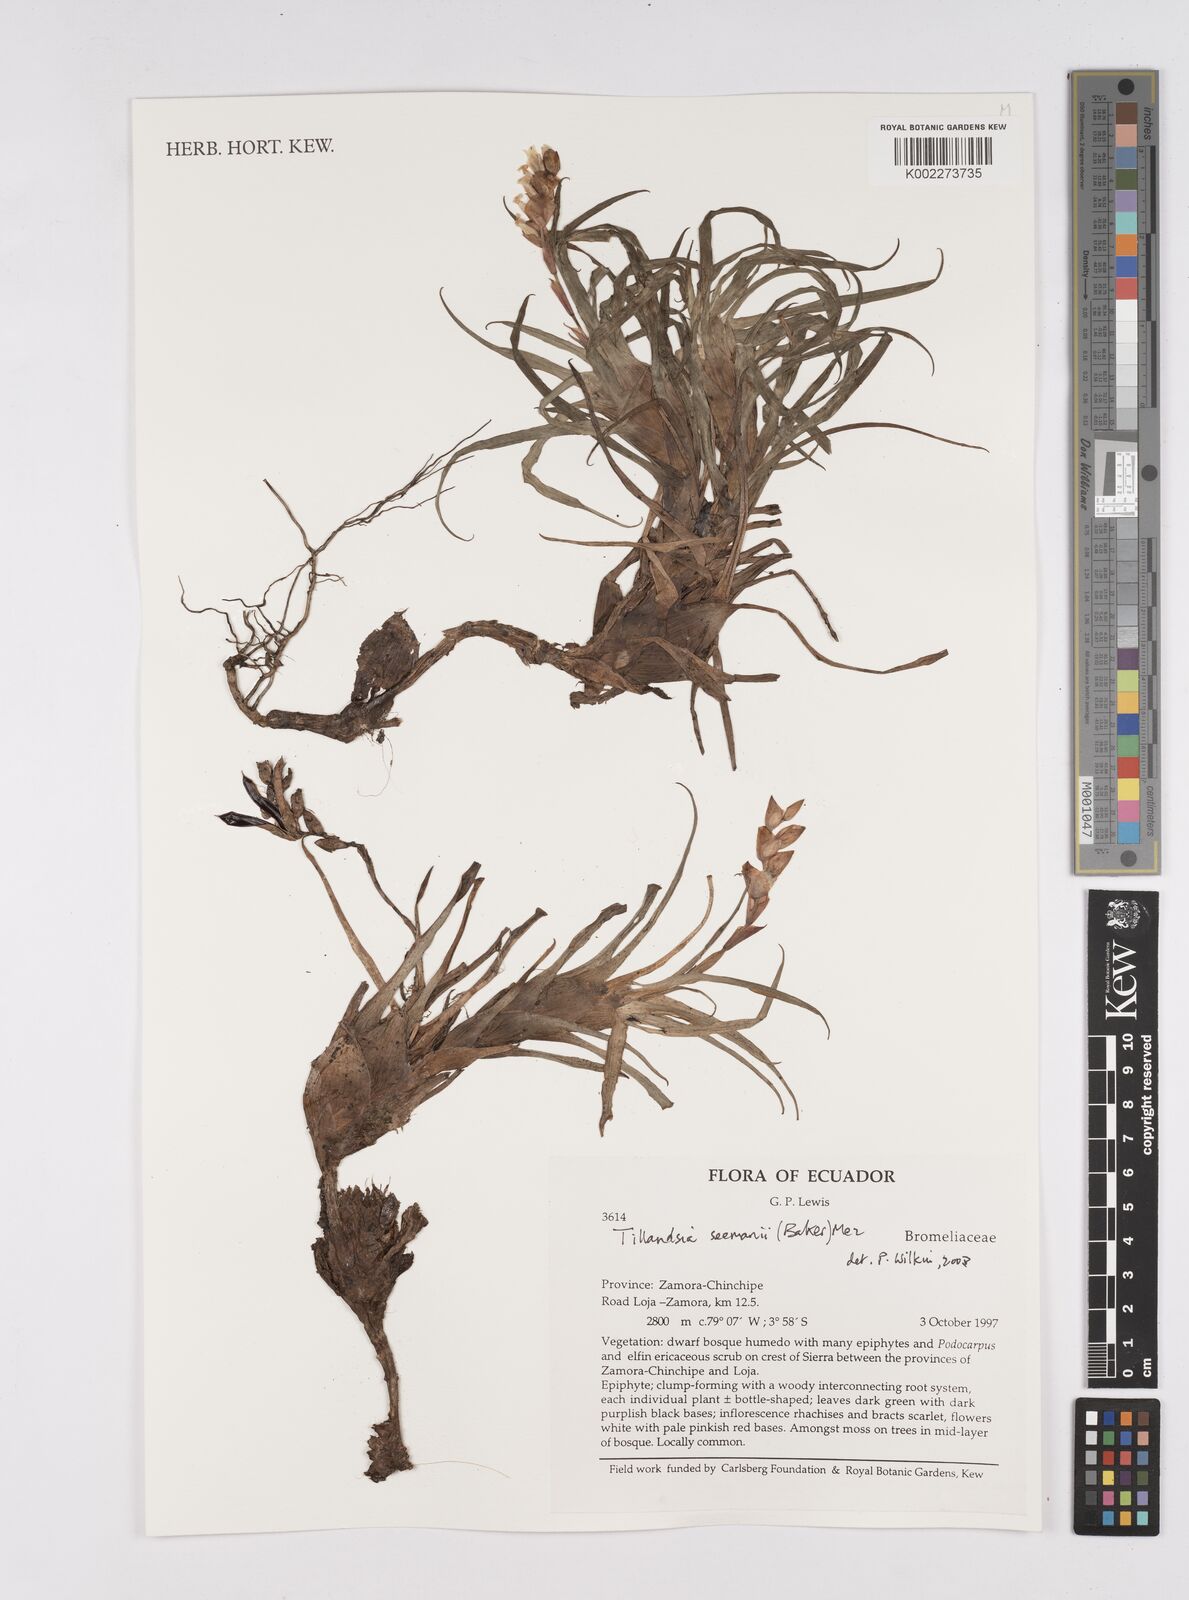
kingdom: Plantae
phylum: Tracheophyta
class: Liliopsida
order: Poales
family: Bromeliaceae
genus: Racinaea
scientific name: Racinaea seemannii
